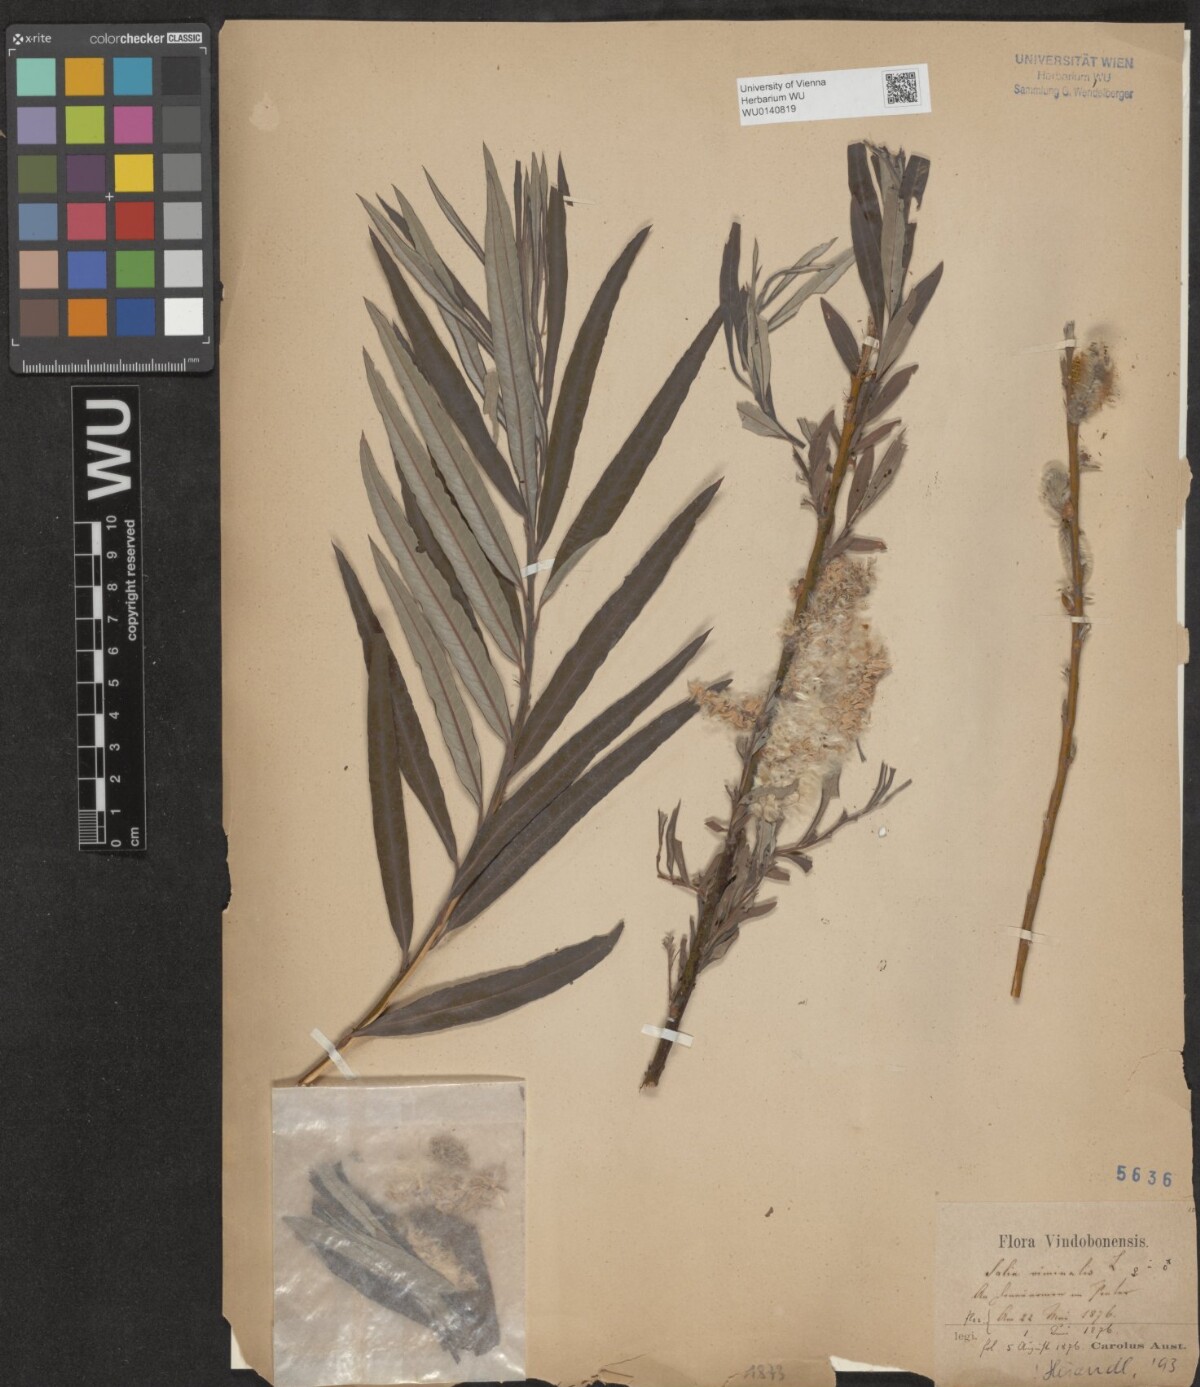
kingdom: Plantae
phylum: Tracheophyta
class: Magnoliopsida
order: Malpighiales
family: Salicaceae
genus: Salix
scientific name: Salix viminalis
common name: Osier
